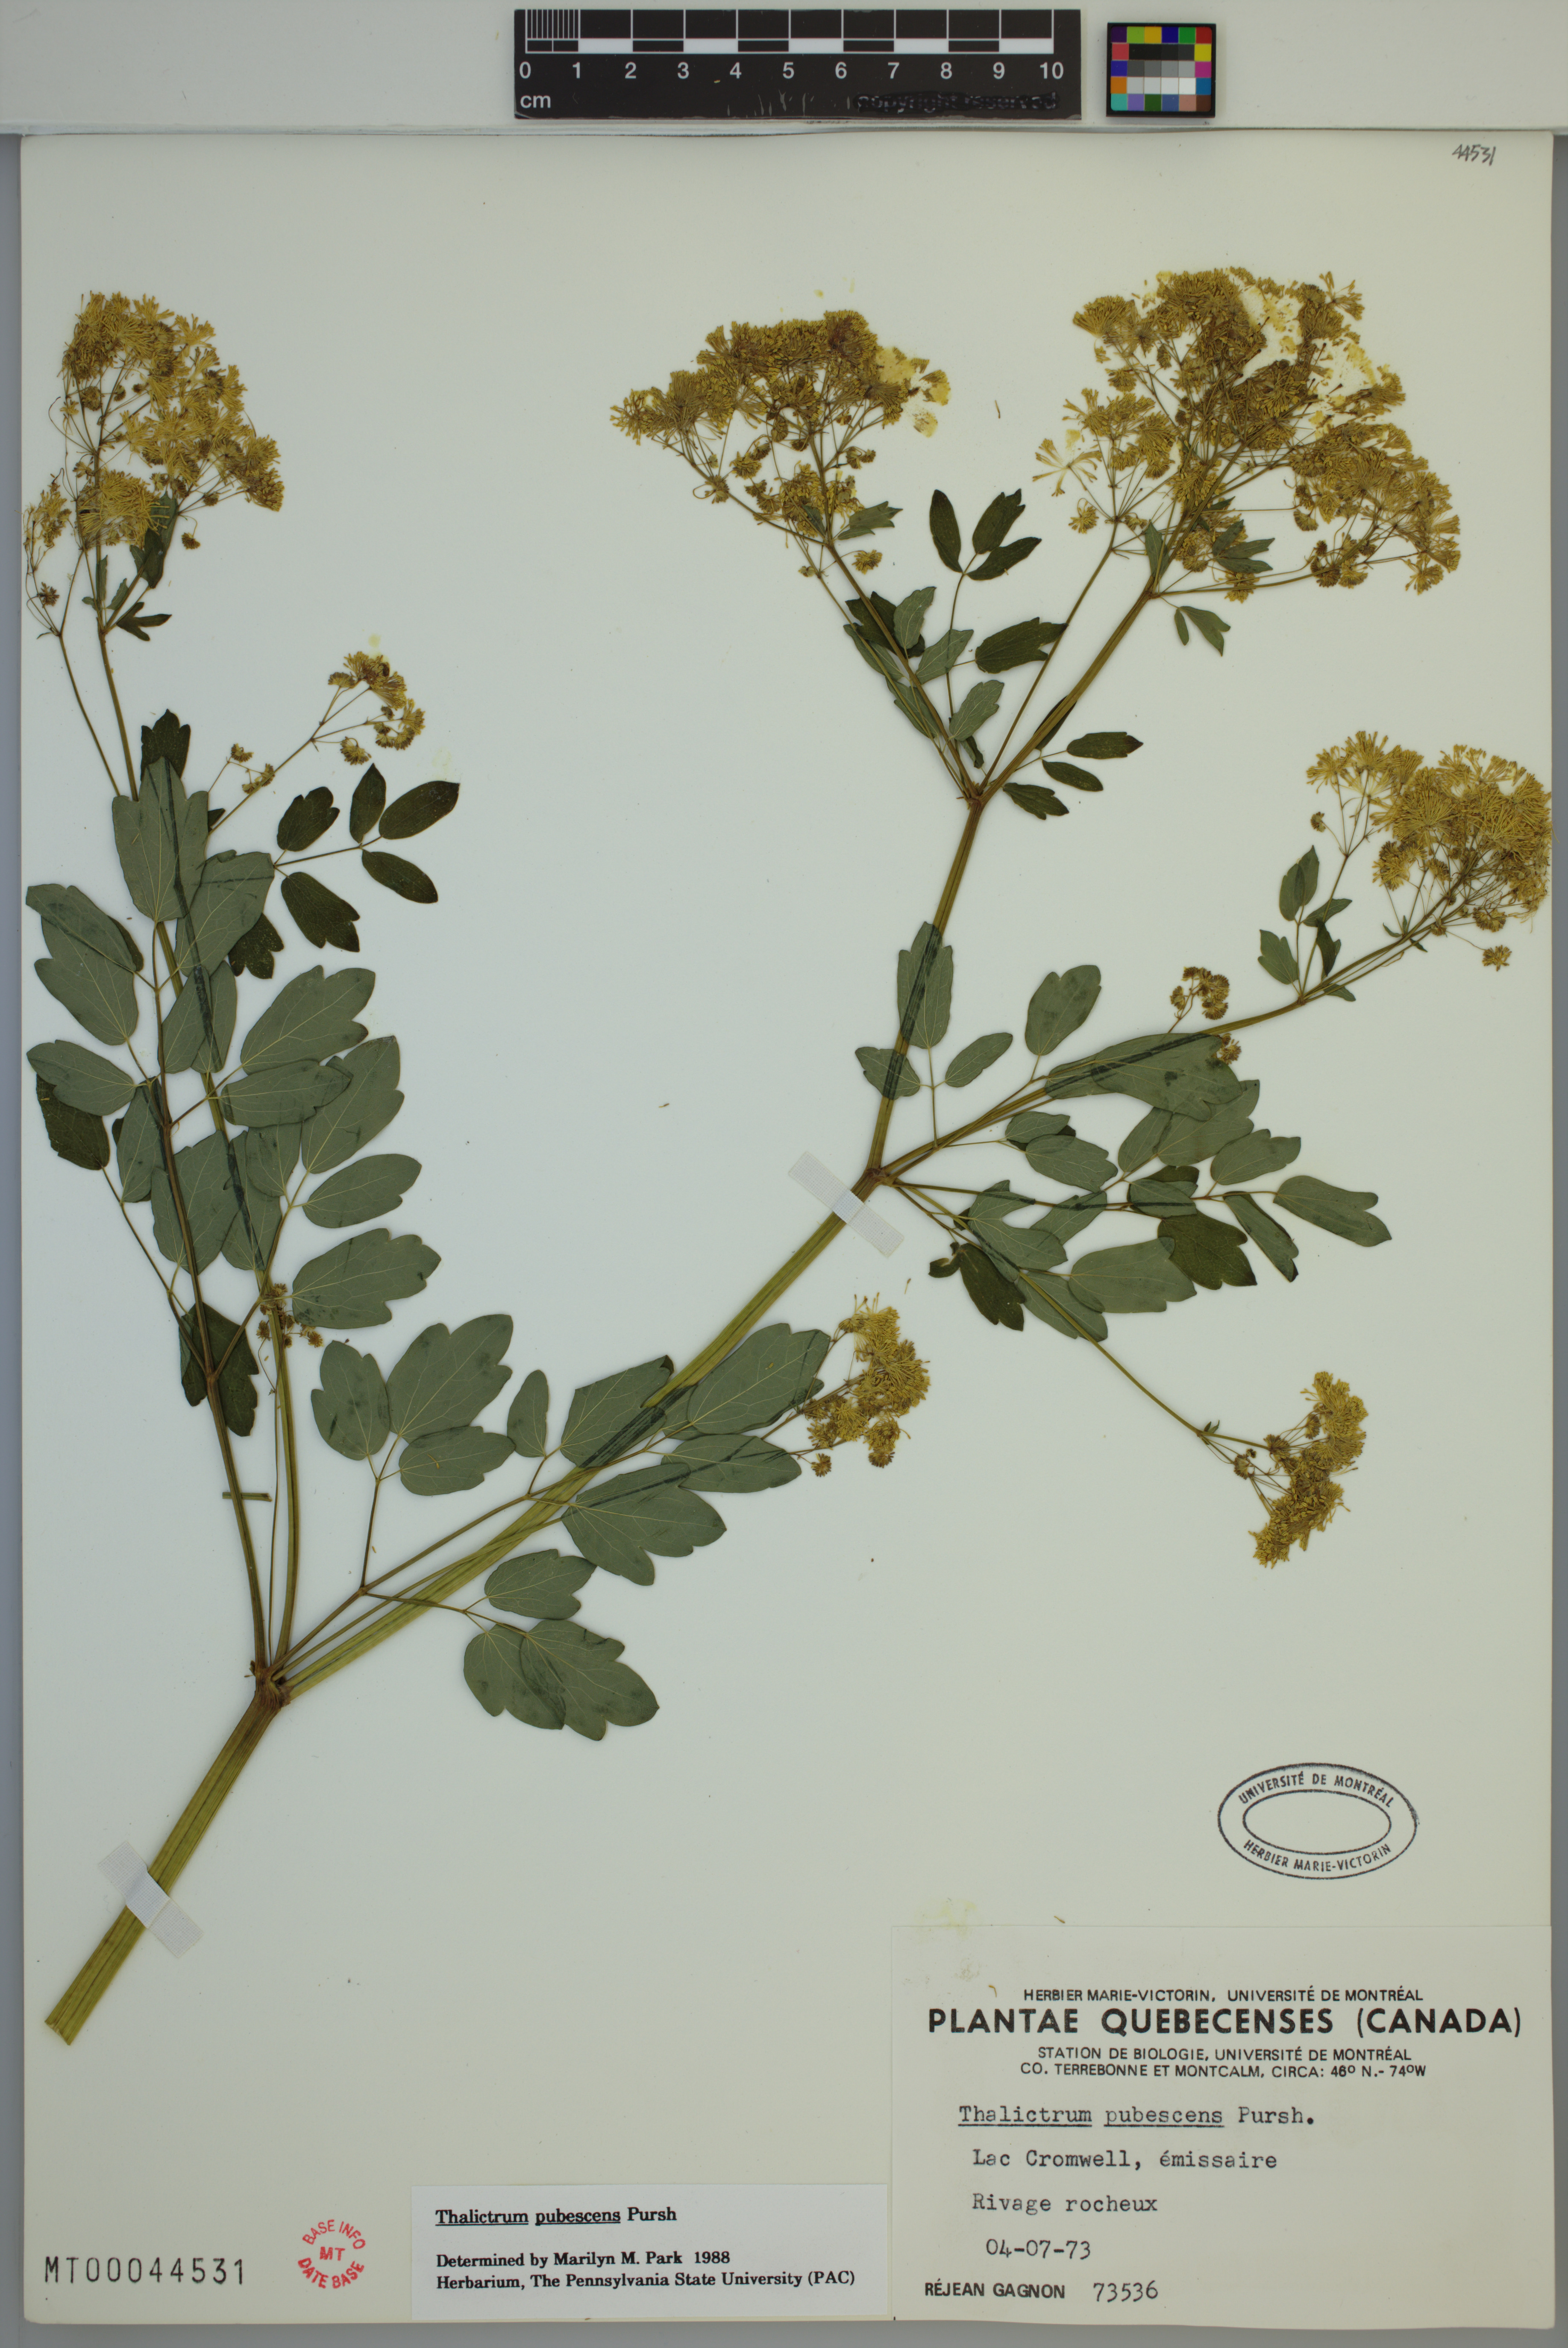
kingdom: Plantae
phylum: Tracheophyta
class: Magnoliopsida
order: Ranunculales
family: Ranunculaceae
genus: Thalictrum
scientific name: Thalictrum pubescens
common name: King-of-the-meadow
